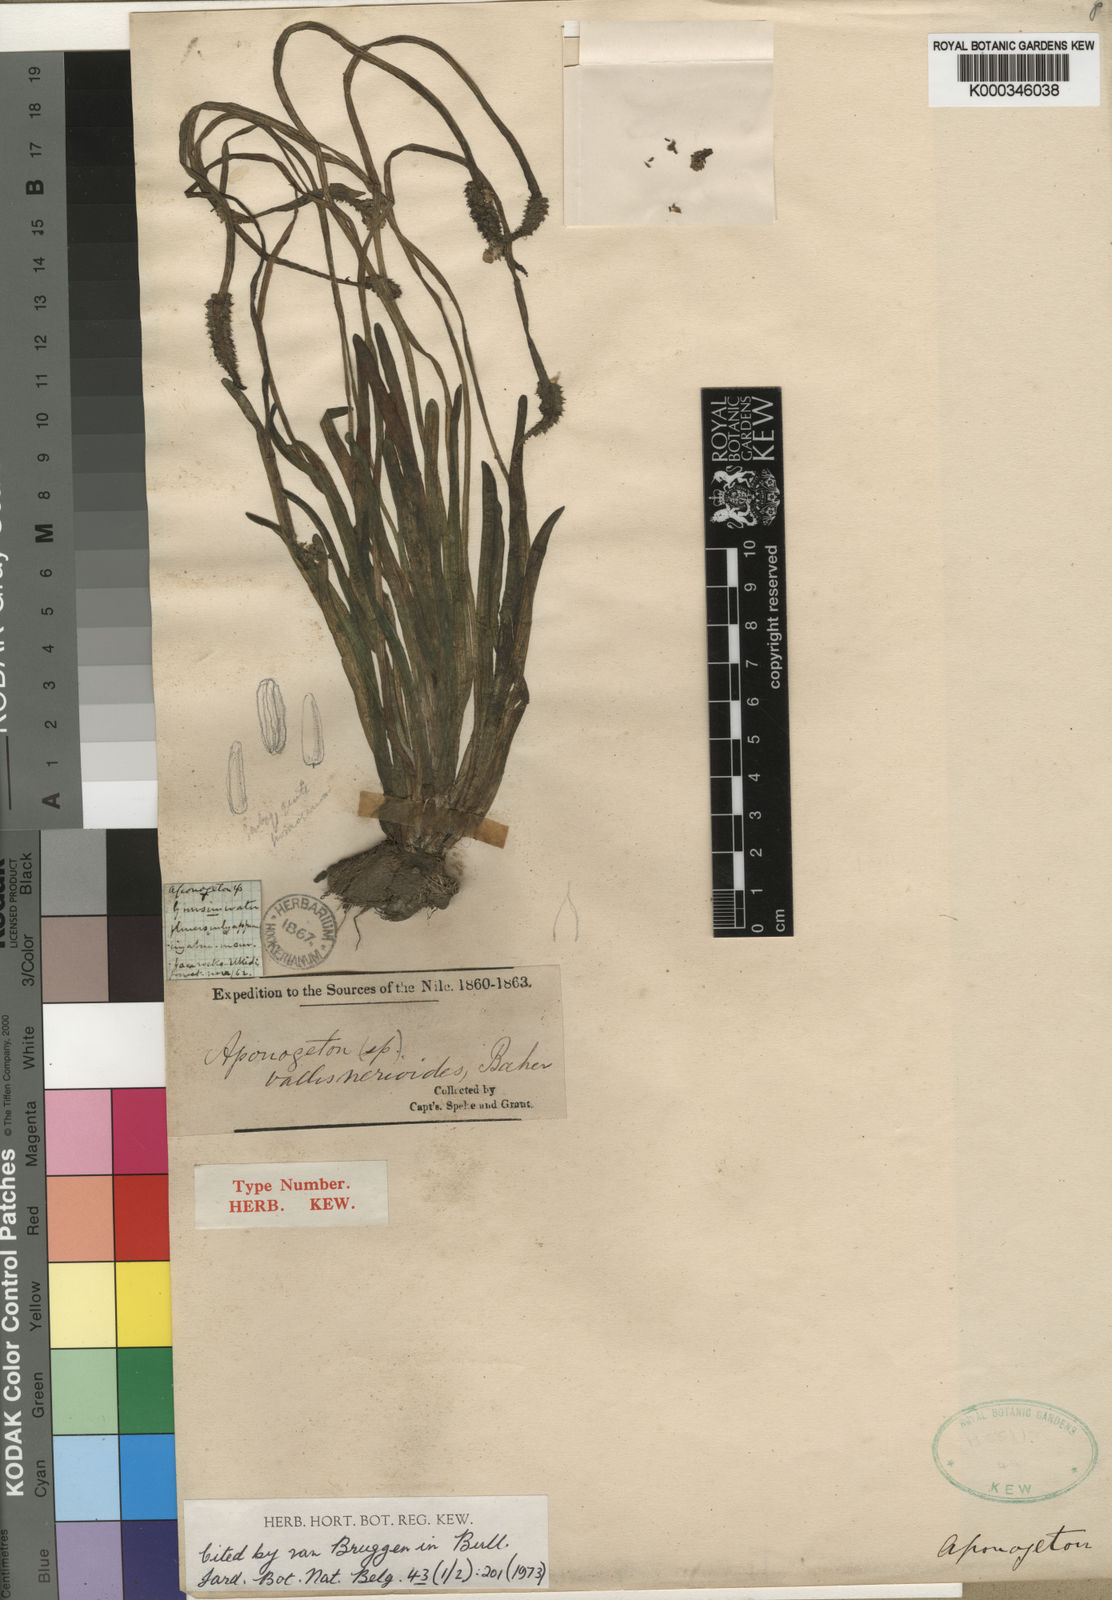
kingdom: Plantae
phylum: Tracheophyta
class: Liliopsida
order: Alismatales
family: Aponogetonaceae
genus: Aponogeton
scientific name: Aponogeton vallisnerioides
